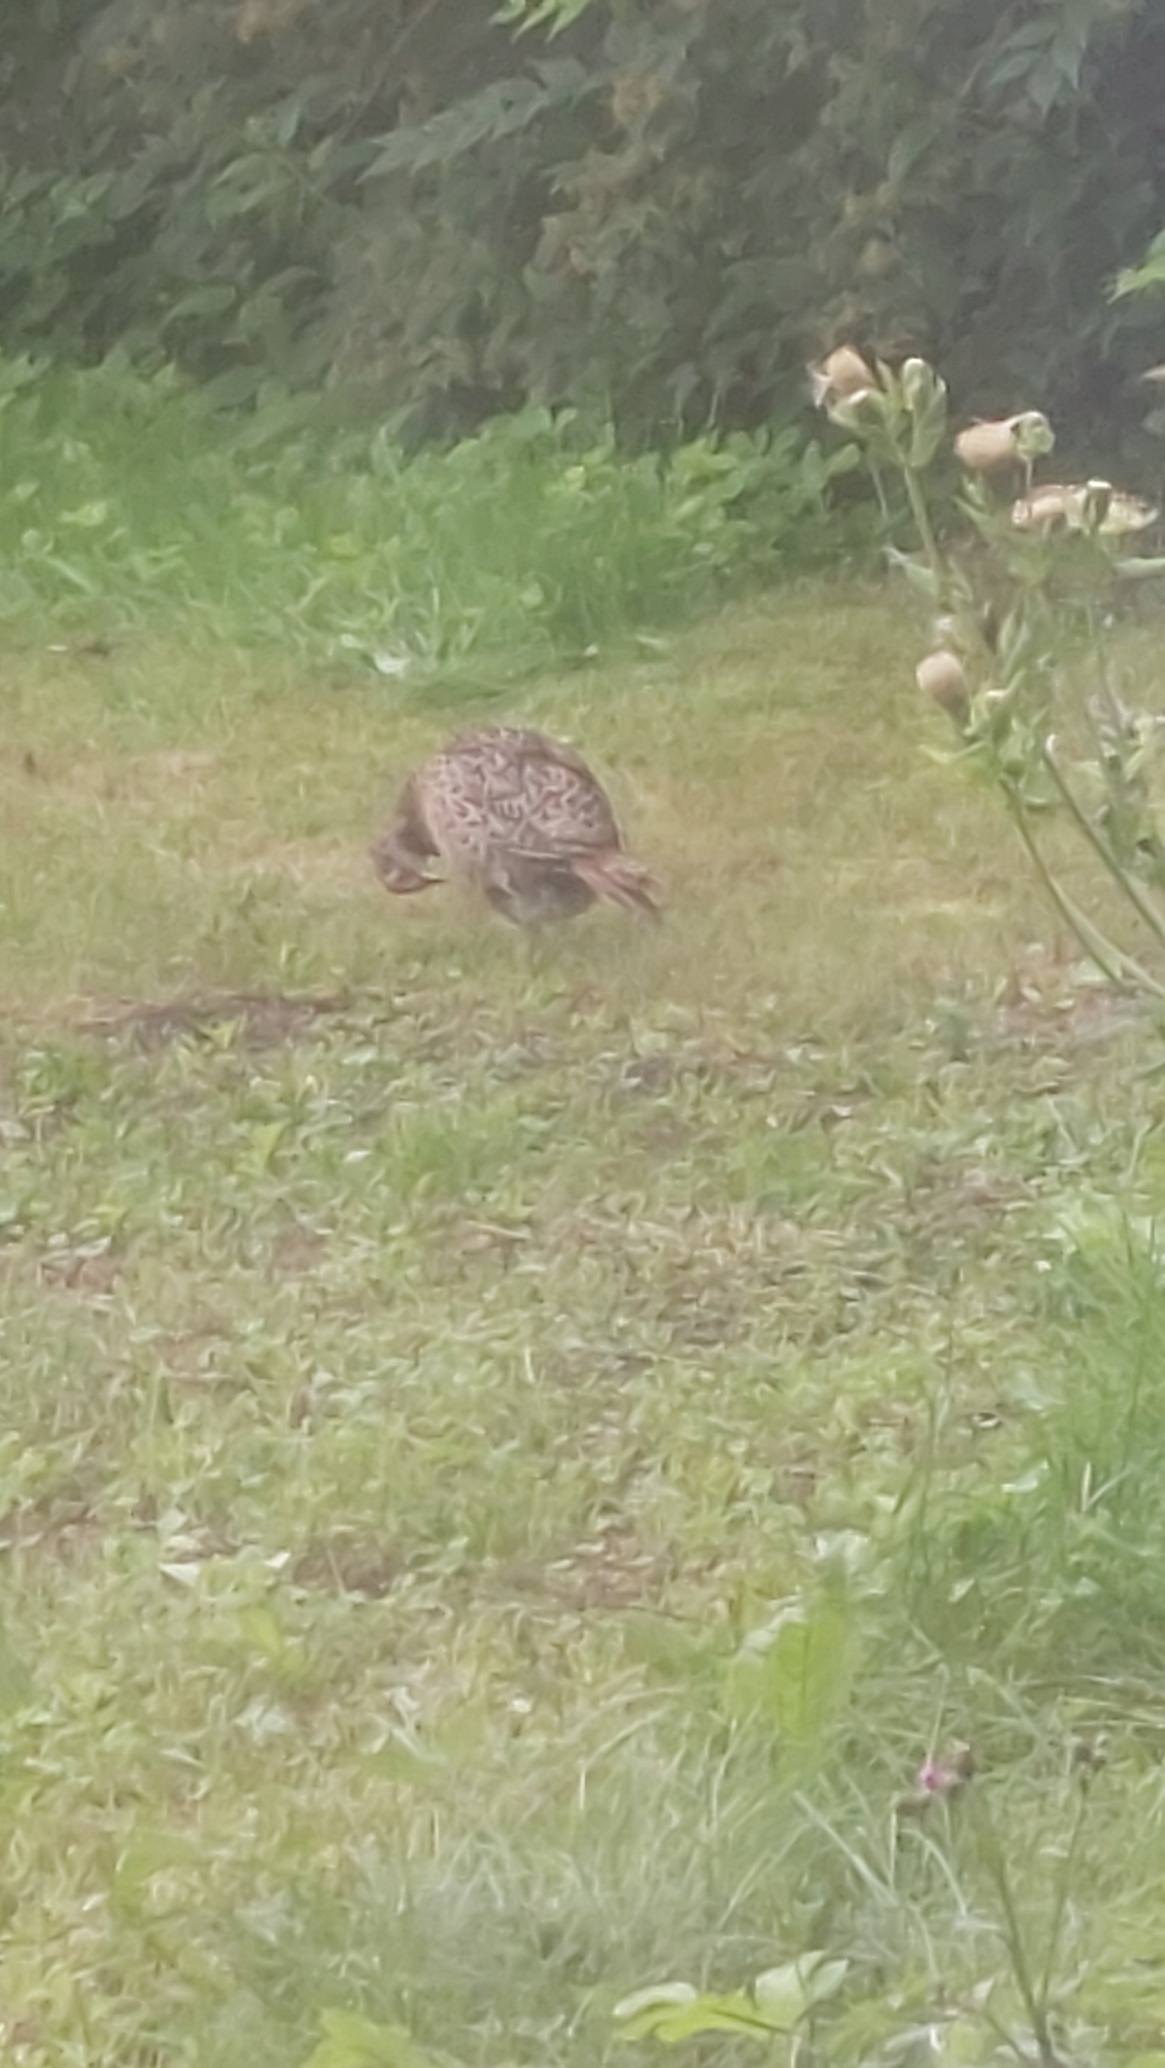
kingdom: Animalia
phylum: Chordata
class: Aves
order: Galliformes
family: Phasianidae
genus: Phasianus
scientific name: Phasianus colchicus
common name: Fasan
